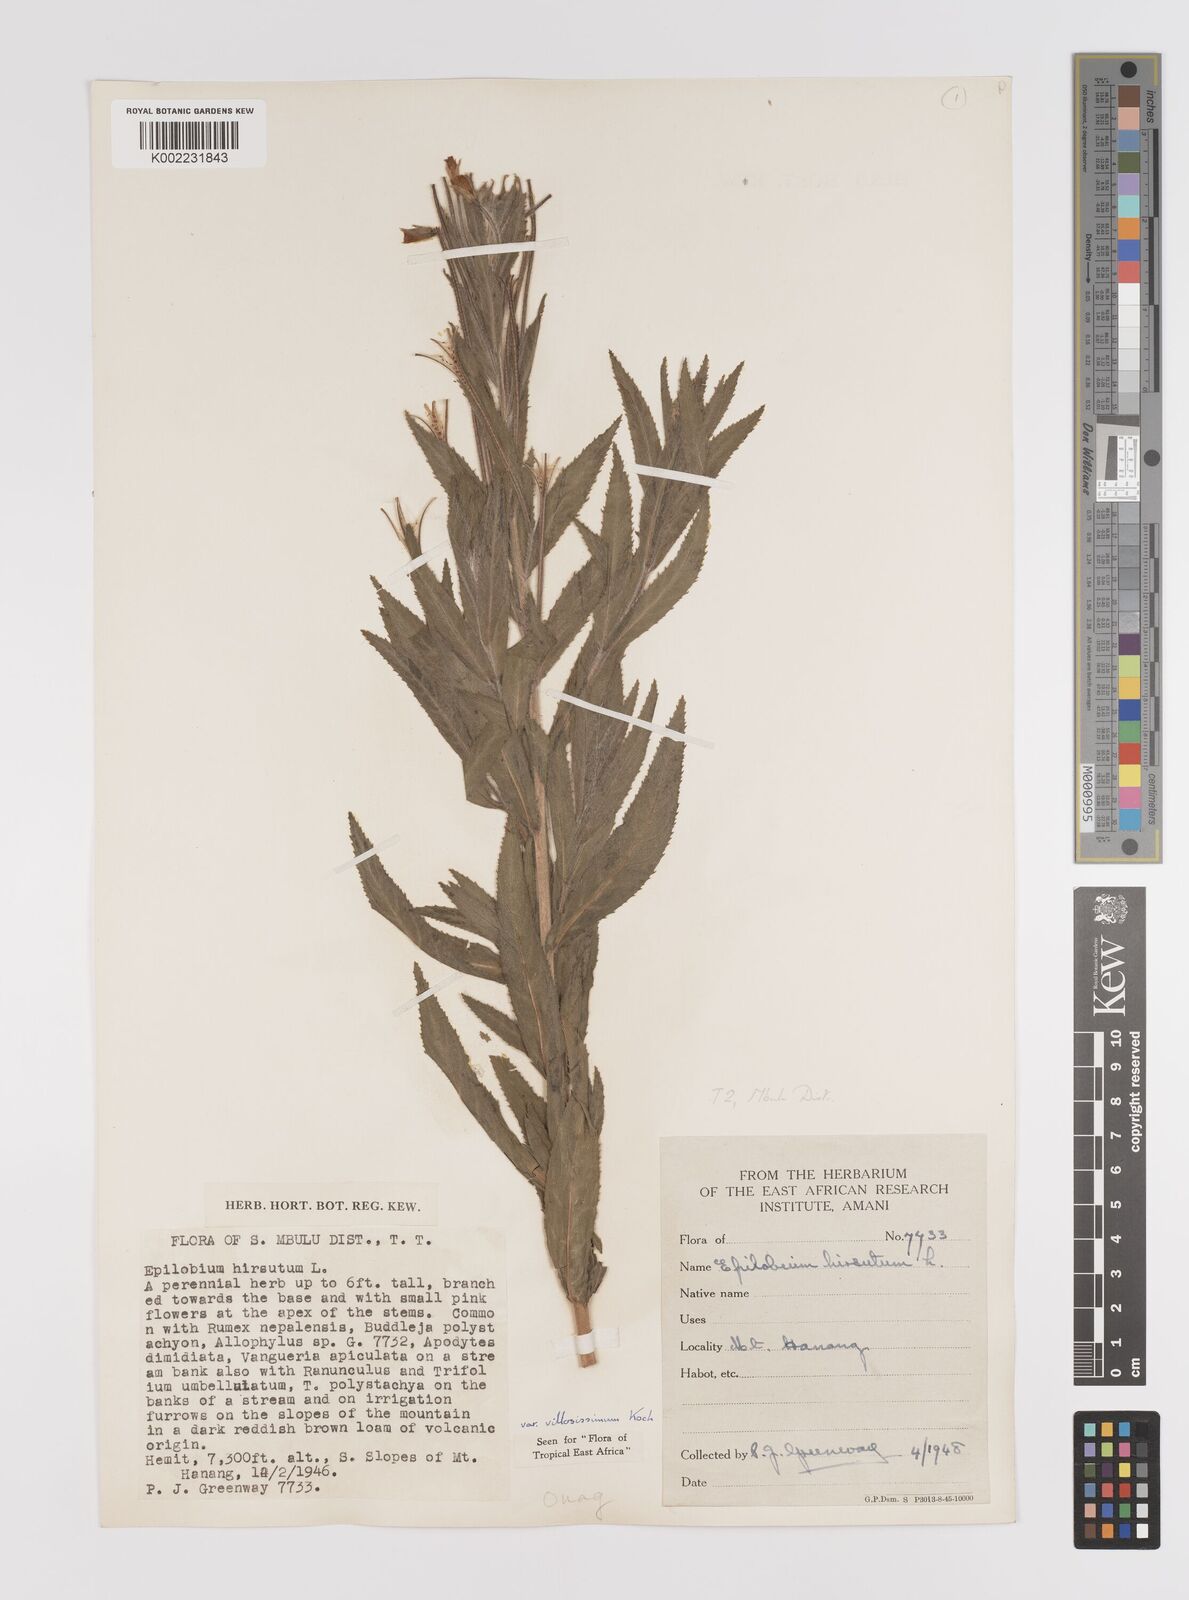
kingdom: Plantae
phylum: Tracheophyta
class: Magnoliopsida
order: Myrtales
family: Onagraceae
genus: Epilobium
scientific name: Epilobium hirsutum
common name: Great willowherb
